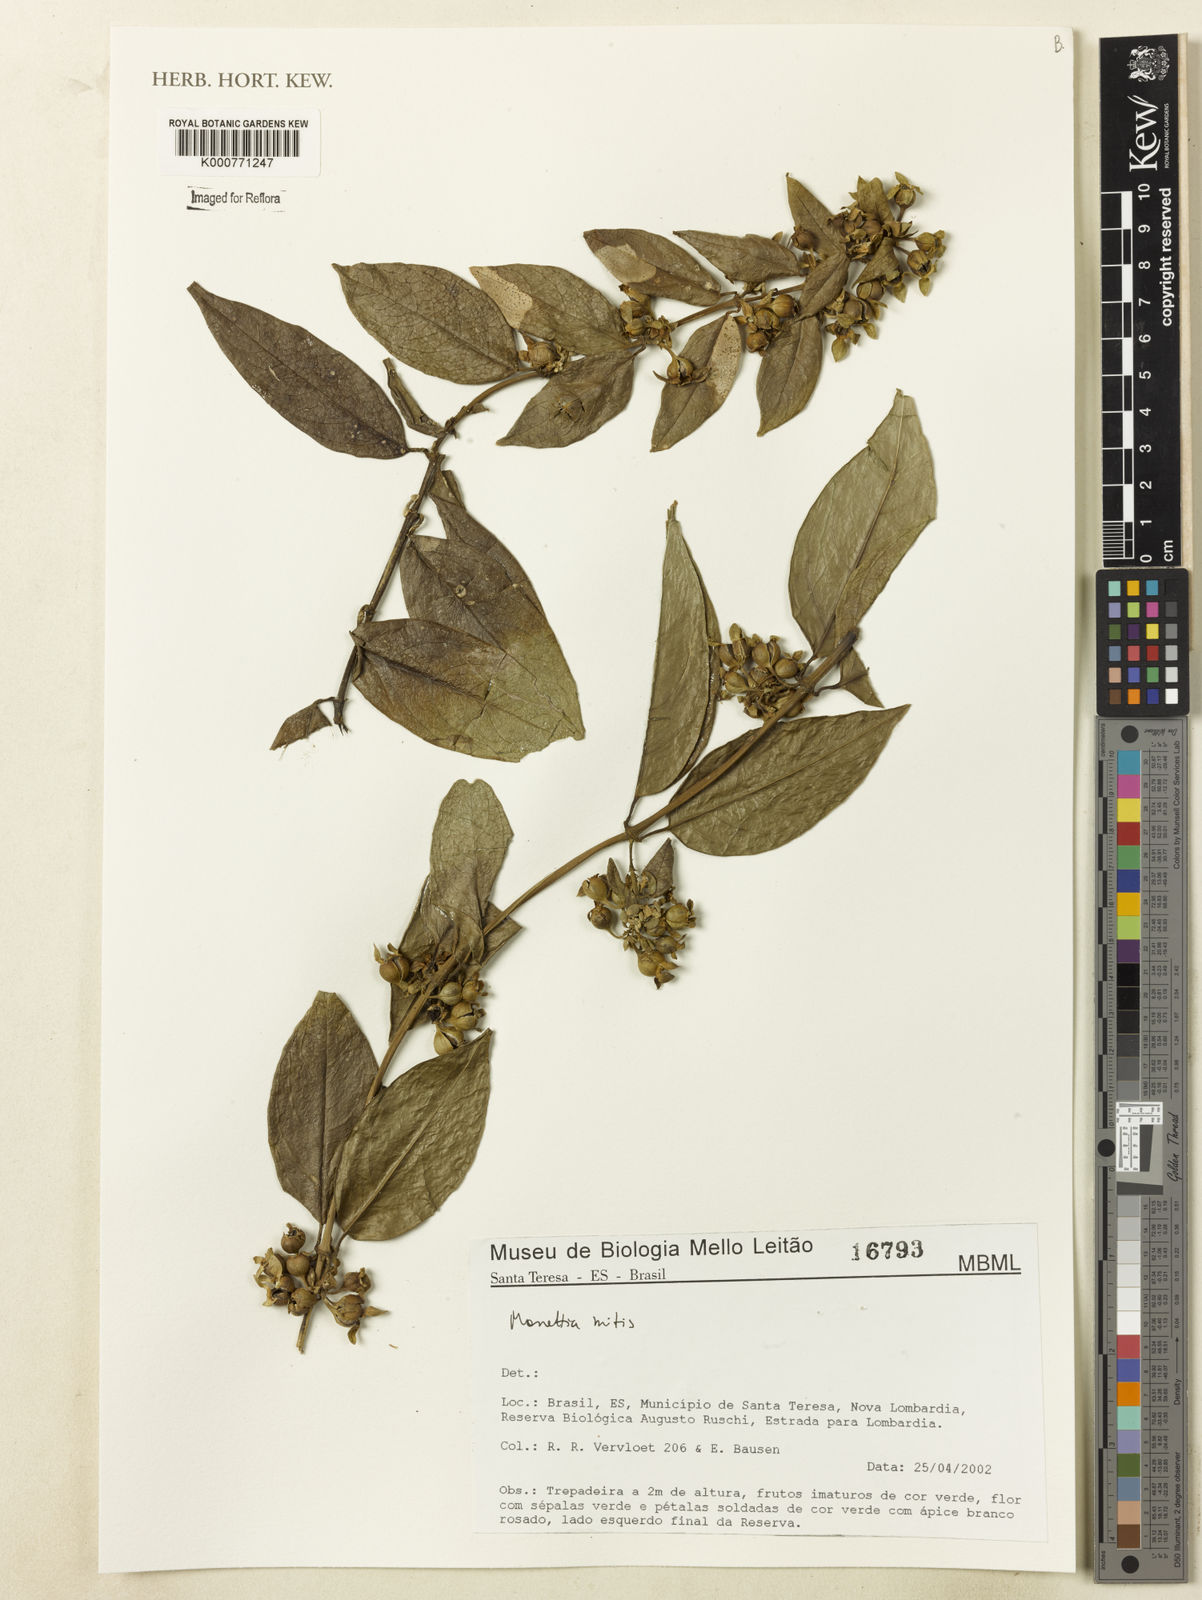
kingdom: Plantae
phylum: Tracheophyta
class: Magnoliopsida
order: Gentianales
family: Rubiaceae
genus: Manettia
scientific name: Manettia
